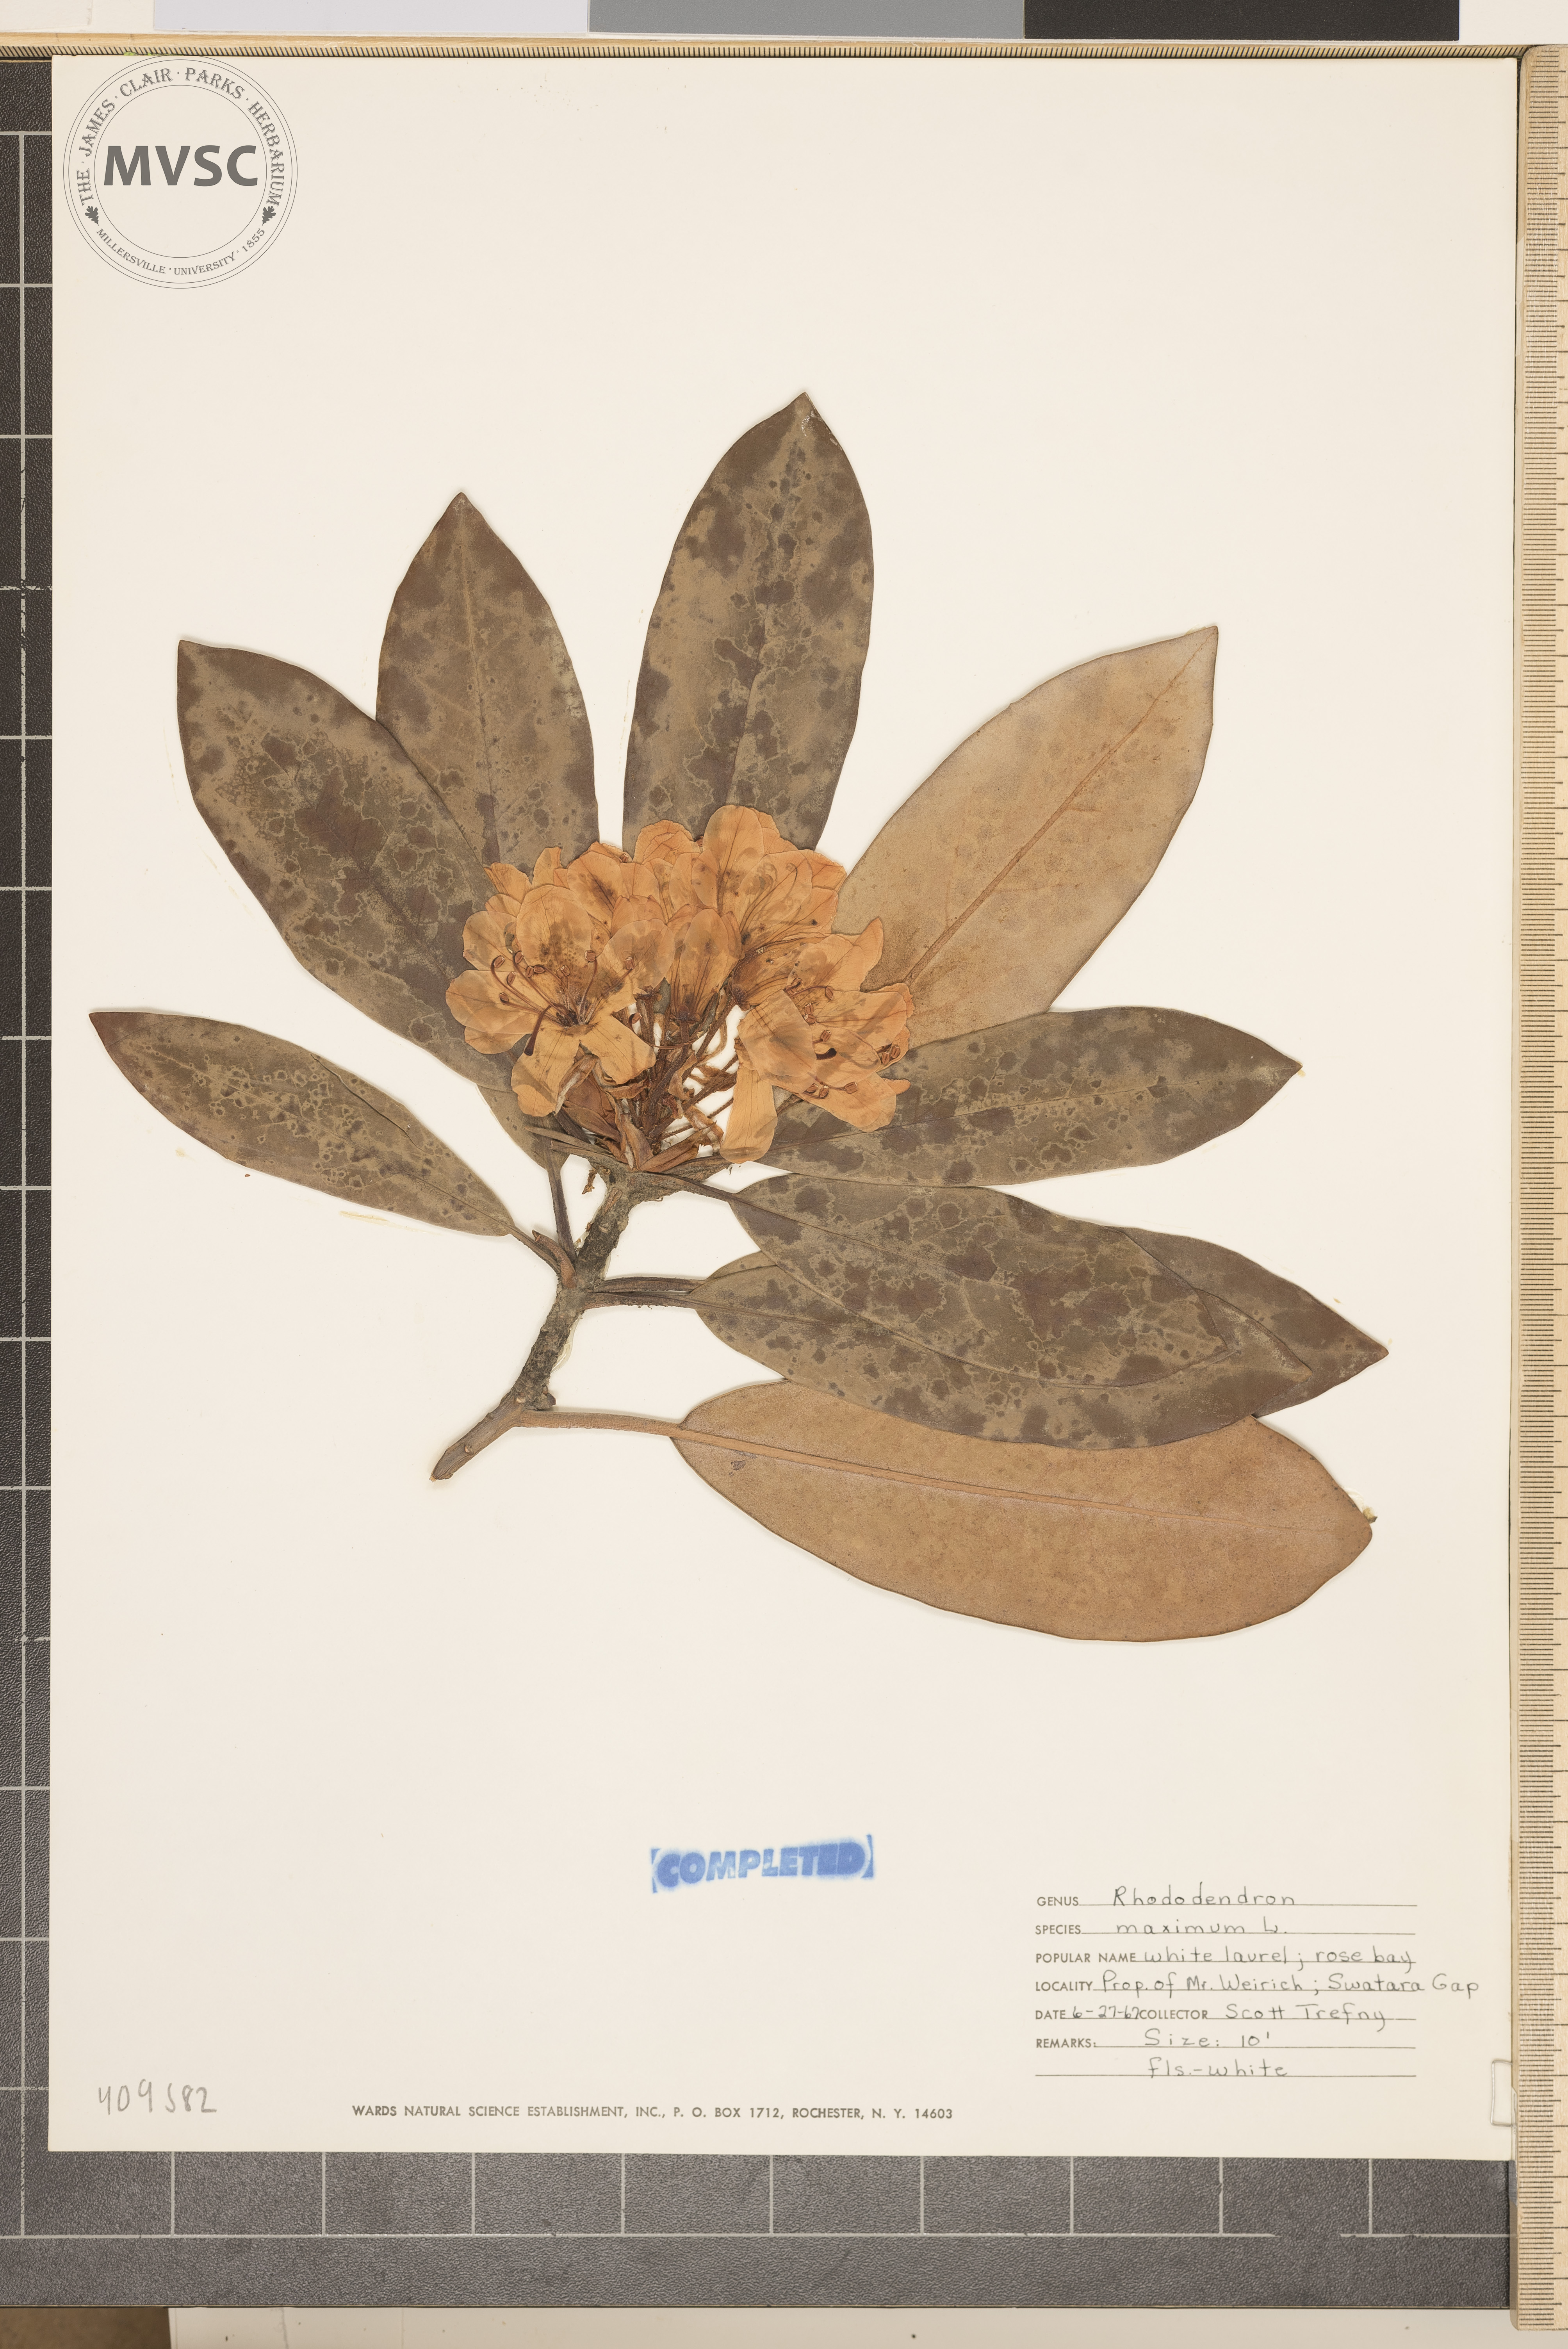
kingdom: Plantae
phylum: Tracheophyta
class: Magnoliopsida
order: Ericales
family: Ericaceae
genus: Rhododendron
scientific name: Rhododendron maximum
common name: Great rhododendron
